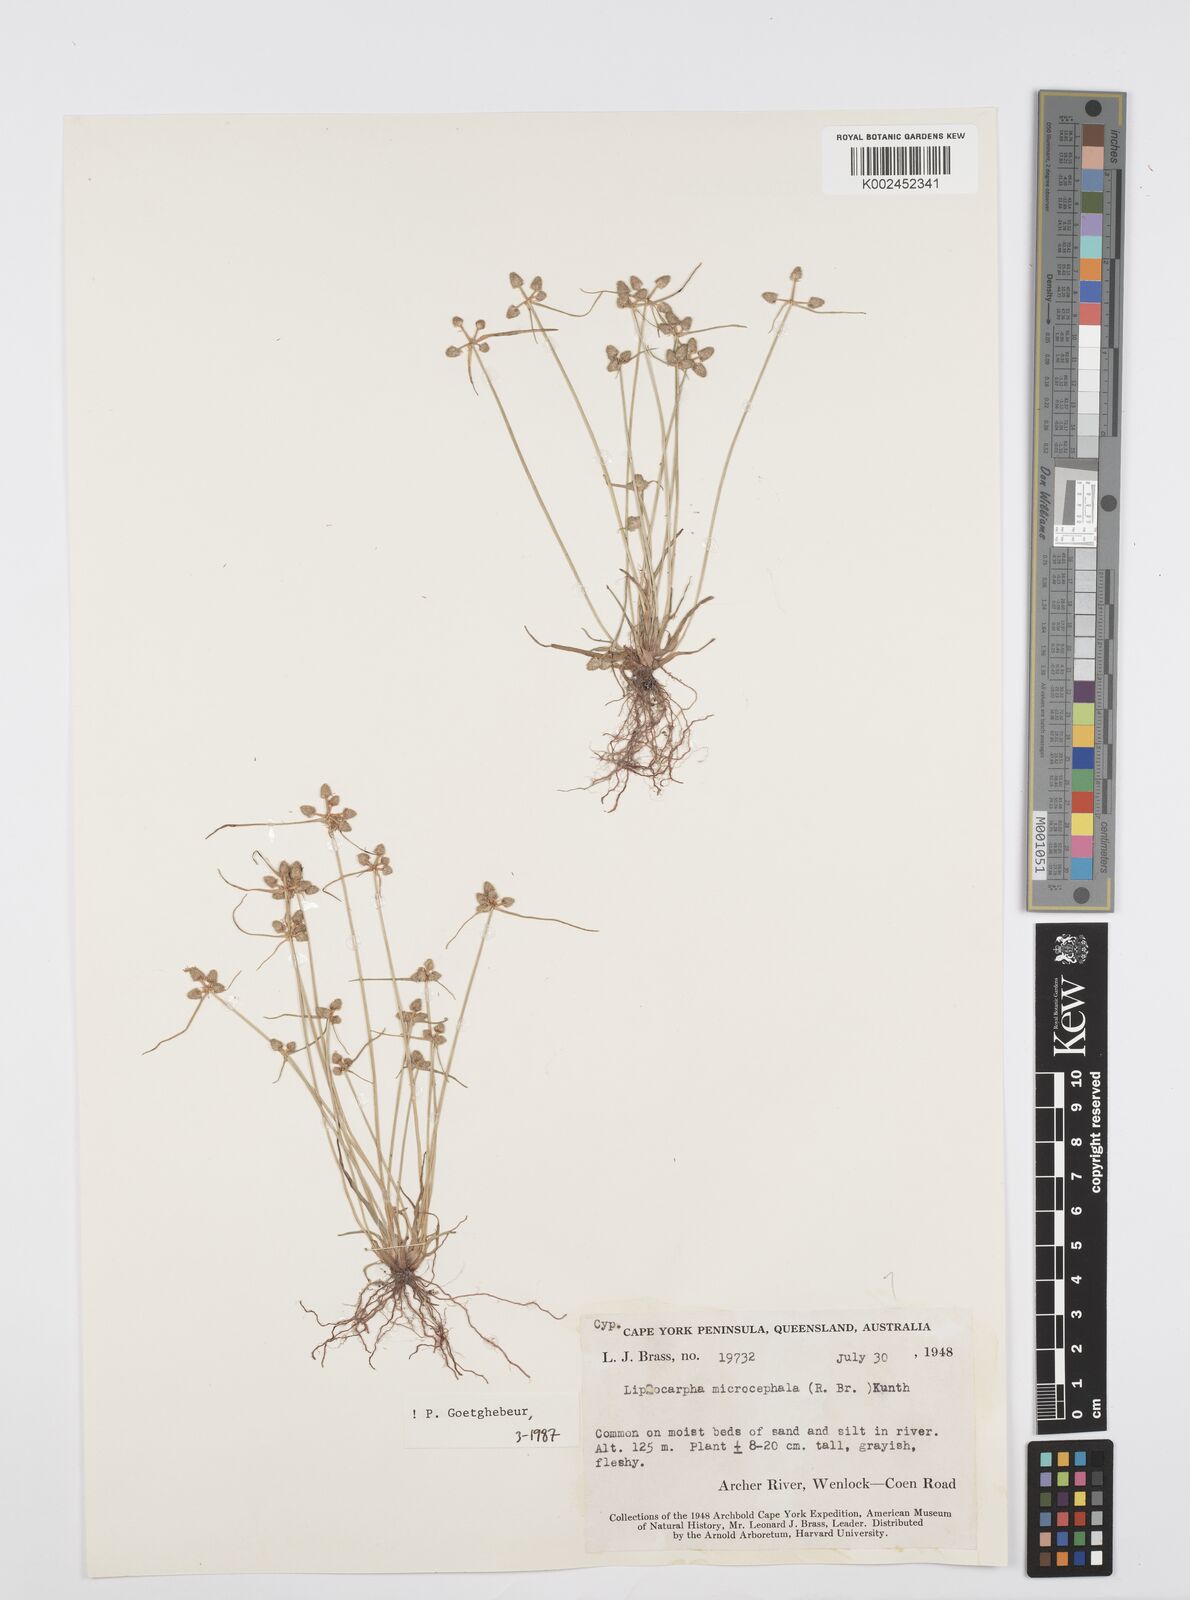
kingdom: Plantae
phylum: Tracheophyta
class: Liliopsida
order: Poales
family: Cyperaceae
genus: Cyperus
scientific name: Cyperus microcephalus
